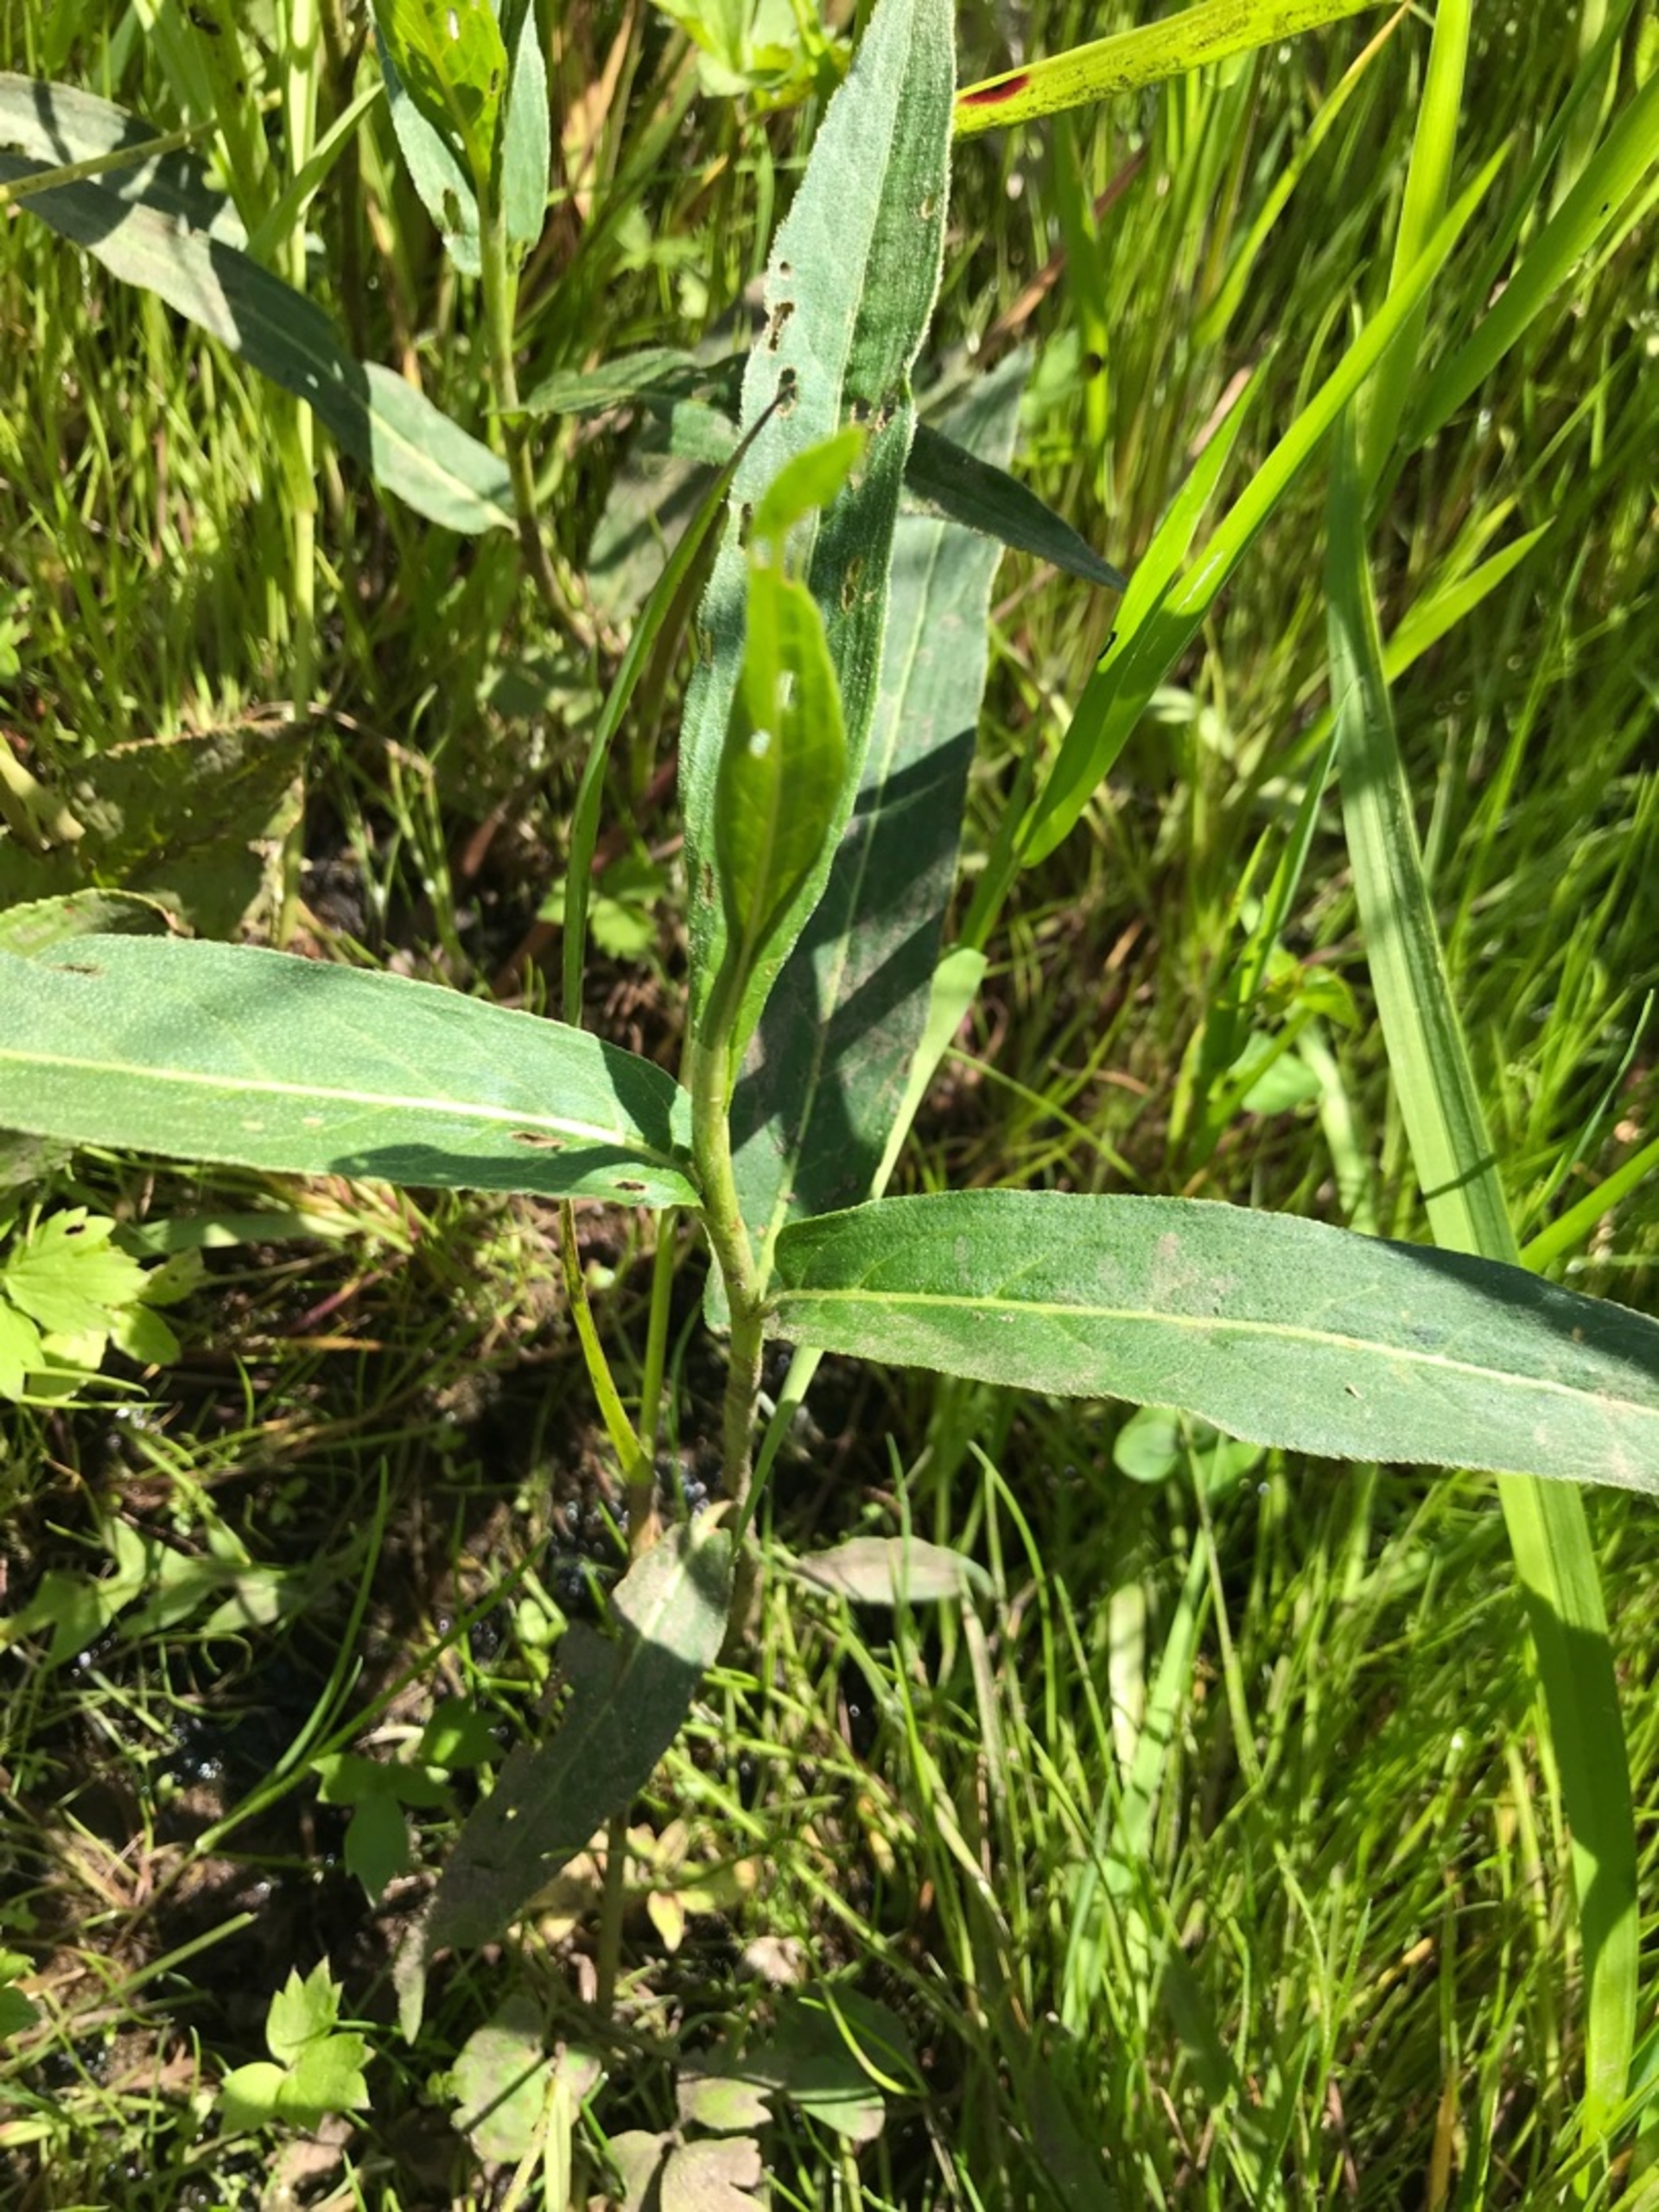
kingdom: Plantae
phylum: Tracheophyta
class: Magnoliopsida
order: Caryophyllales
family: Polygonaceae
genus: Persicaria
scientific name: Persicaria amphibia
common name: Vand-pileurt
